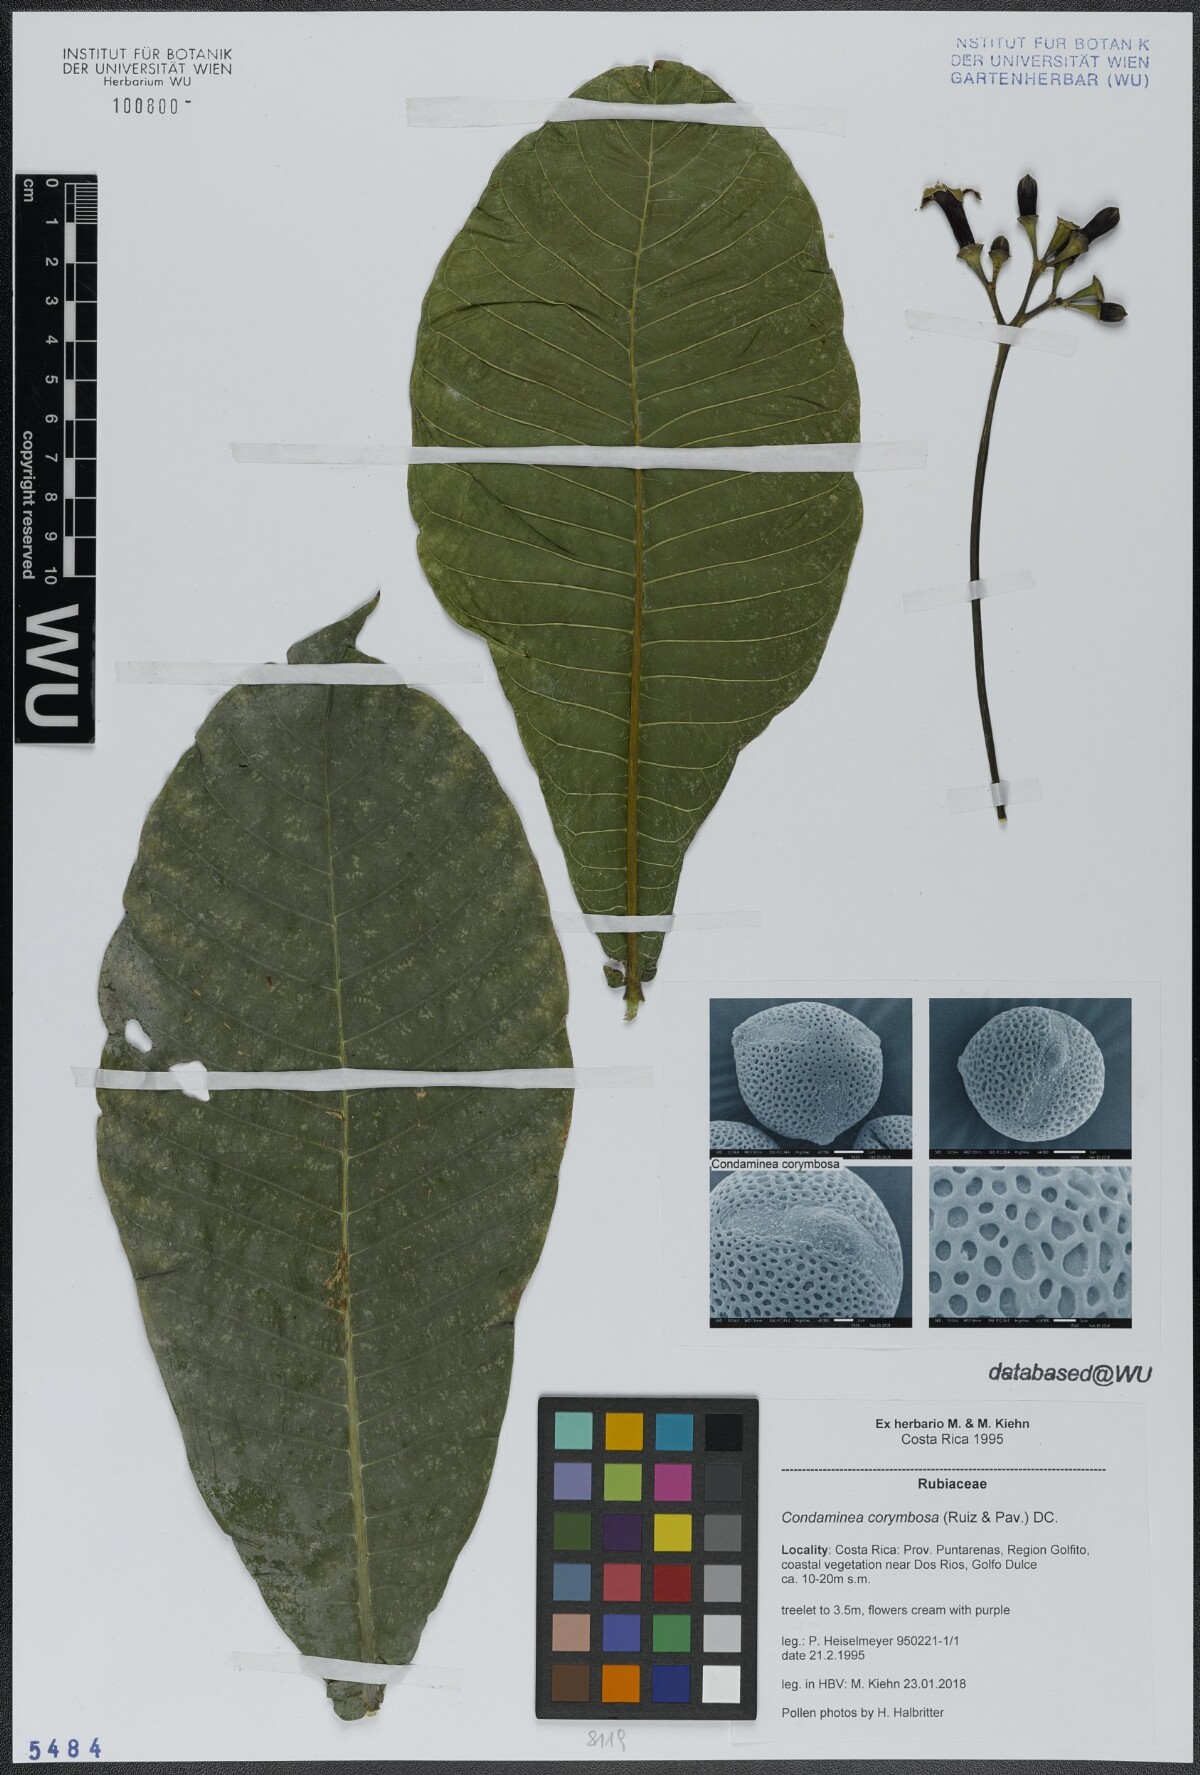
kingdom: Plantae
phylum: Tracheophyta
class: Magnoliopsida
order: Gentianales
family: Rubiaceae
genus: Condaminea
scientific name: Condaminea corymbosa
